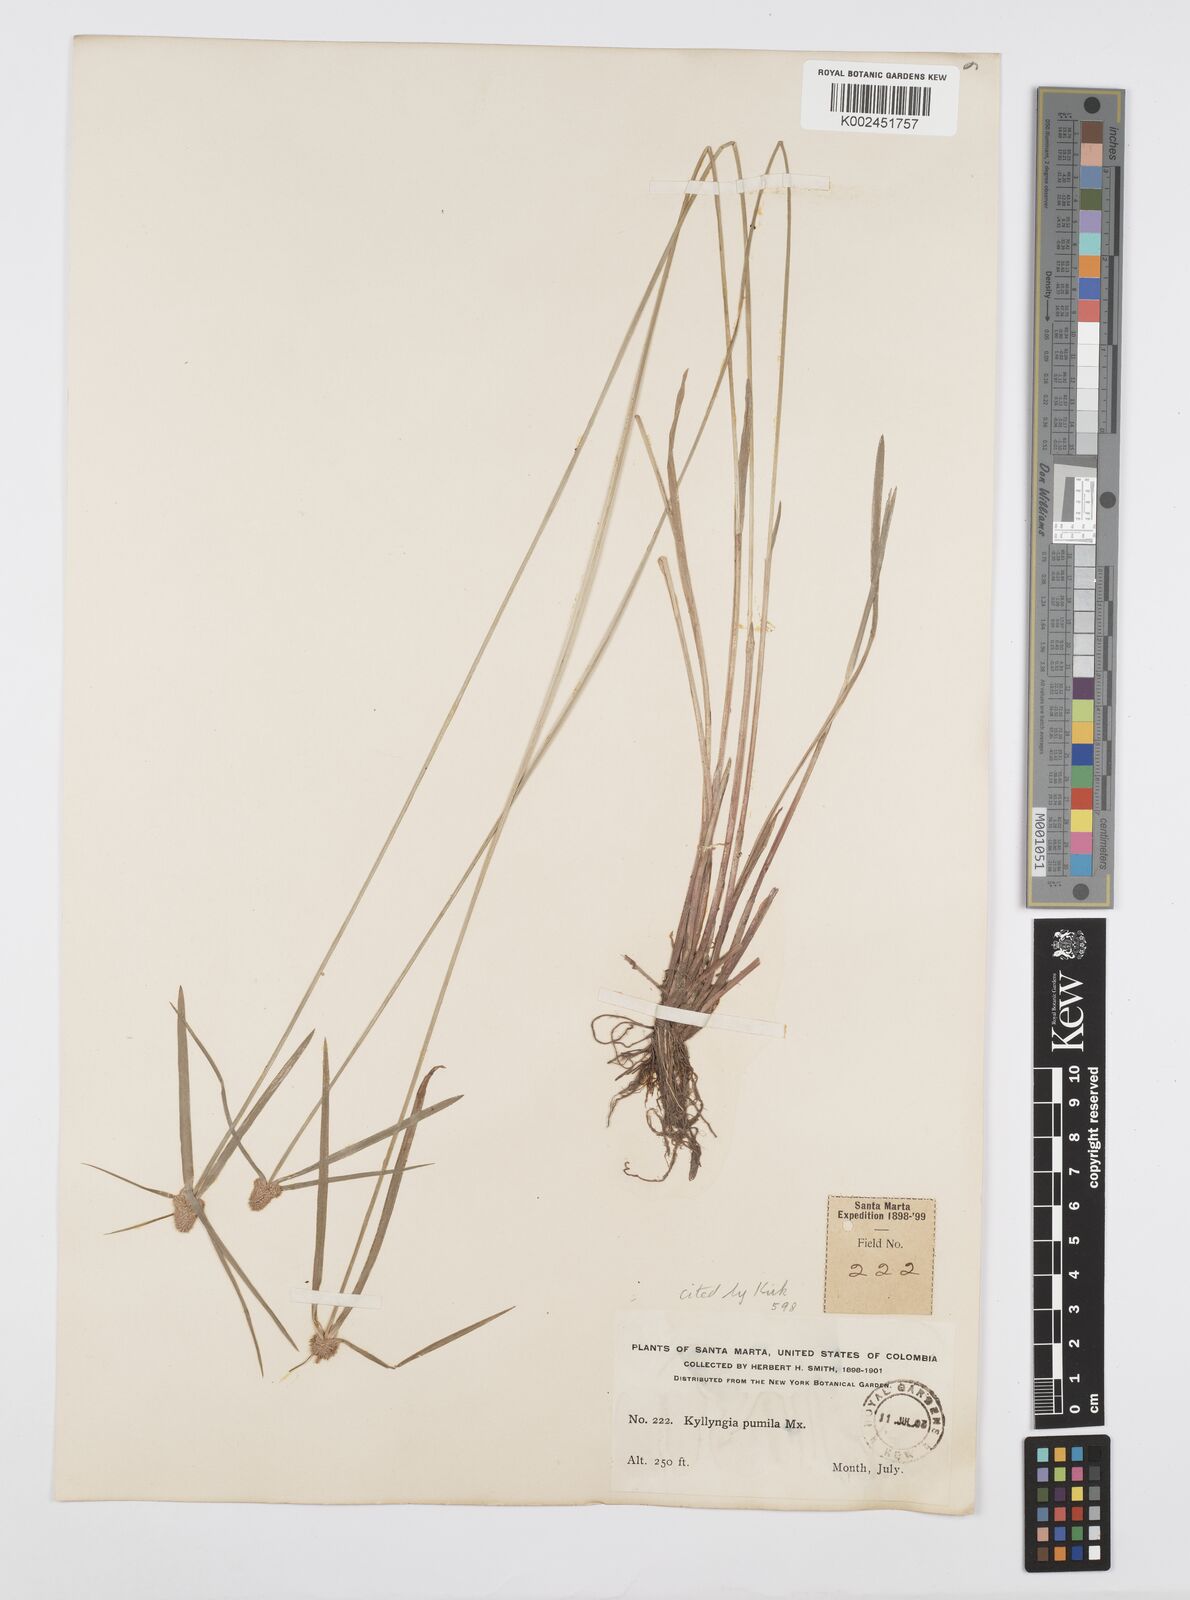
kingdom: Plantae
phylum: Tracheophyta
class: Liliopsida
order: Poales
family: Cyperaceae
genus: Cyperus
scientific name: Cyperus
